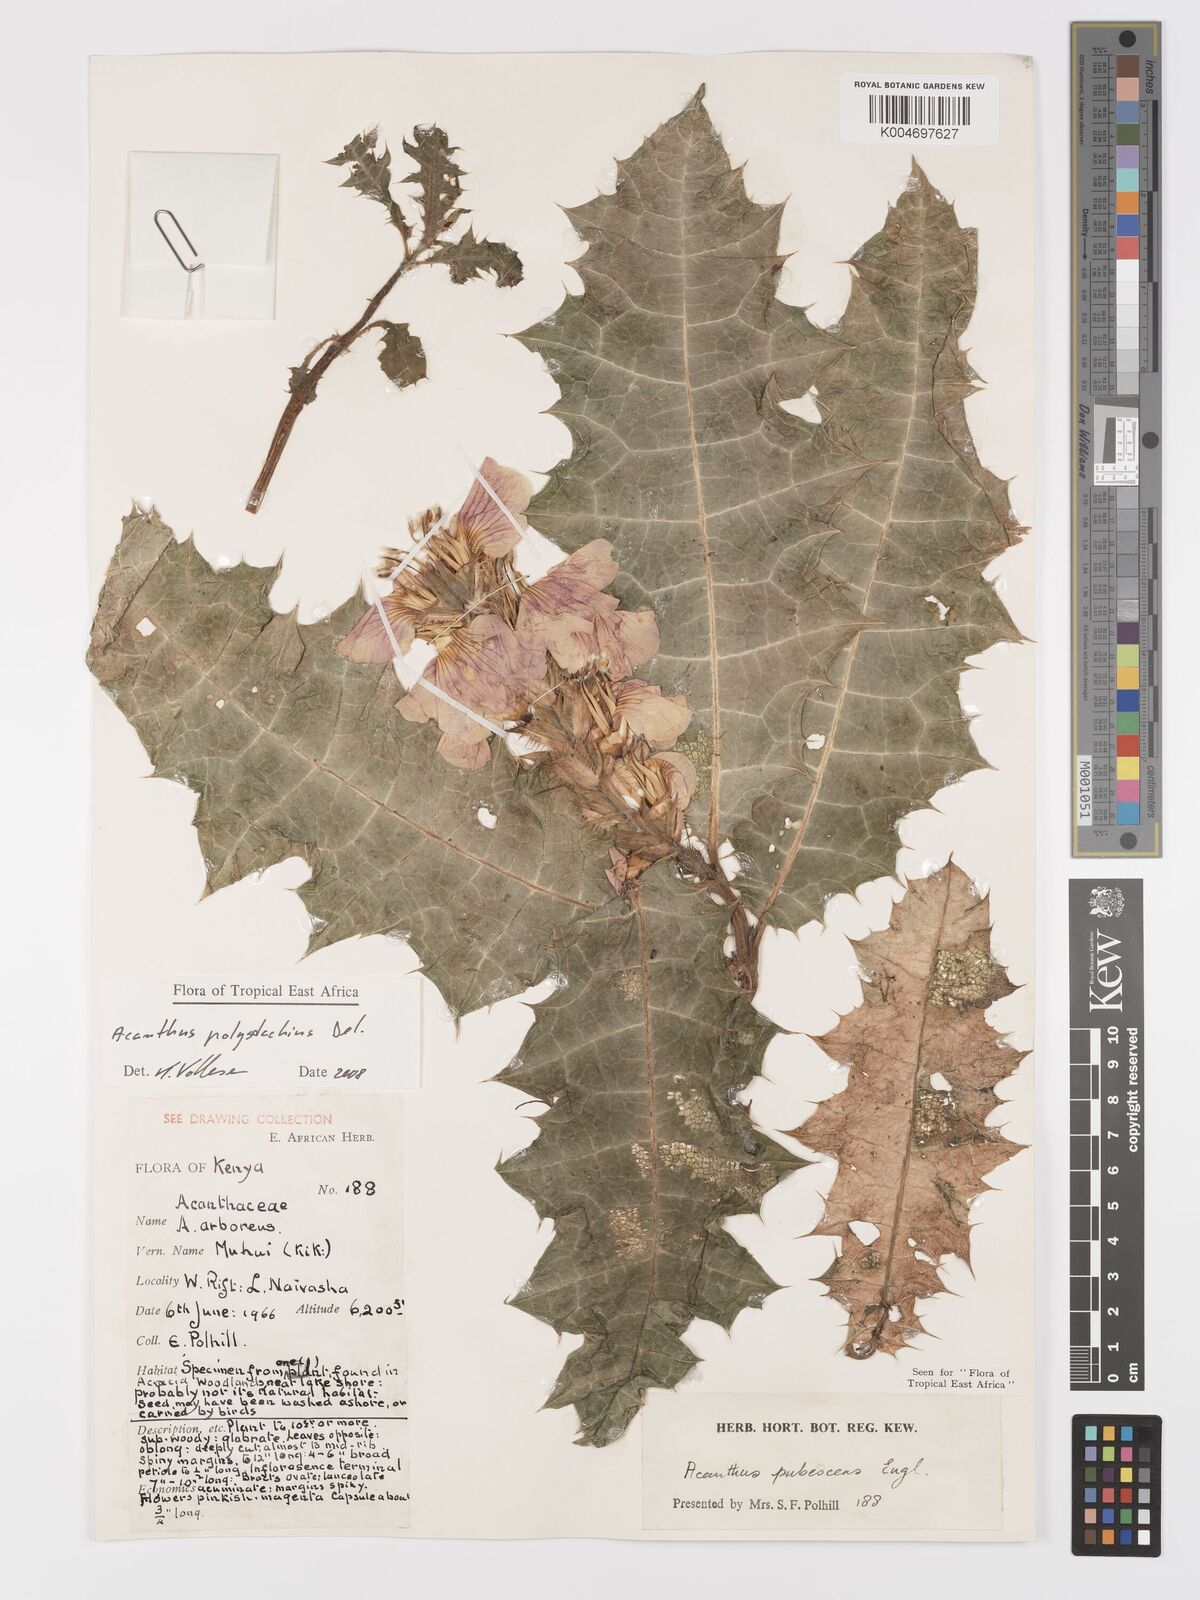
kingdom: Plantae
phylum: Tracheophyta
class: Magnoliopsida
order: Lamiales
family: Acanthaceae
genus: Acanthus
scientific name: Acanthus polystachyus
